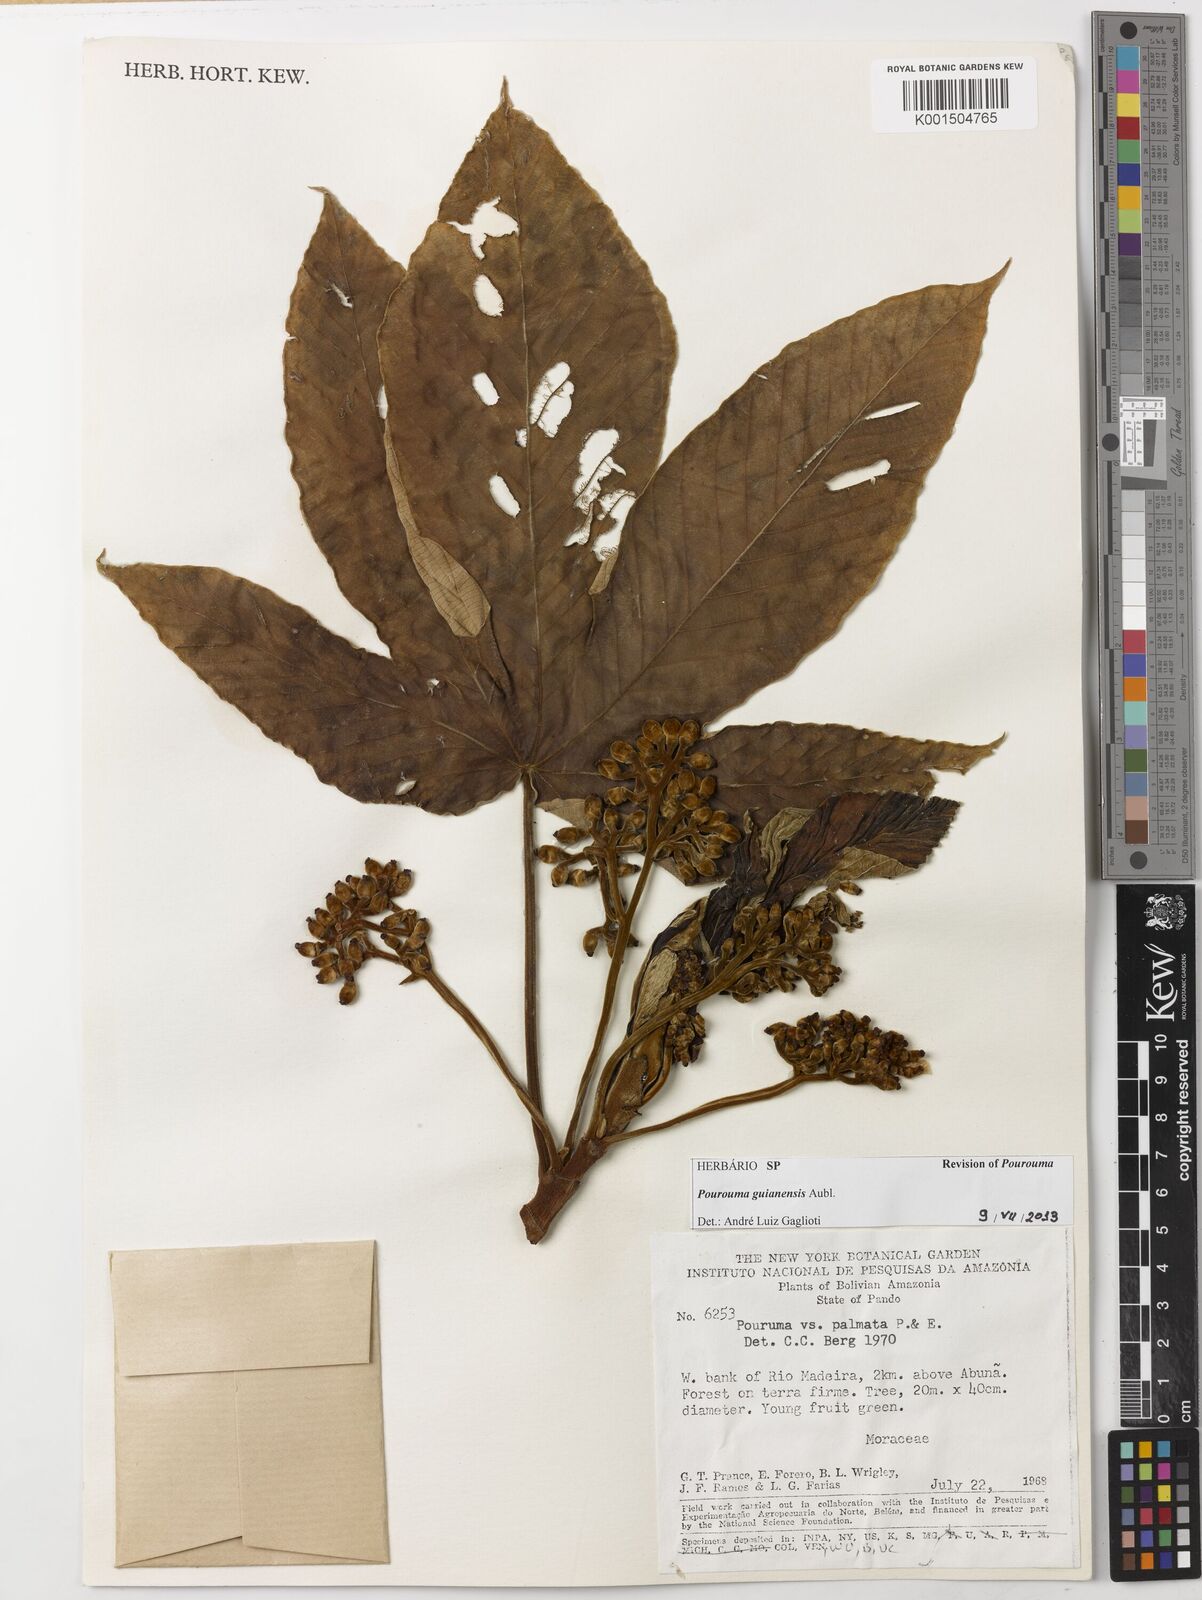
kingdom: Plantae
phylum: Tracheophyta
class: Magnoliopsida
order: Rosales
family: Urticaceae
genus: Pourouma
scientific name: Pourouma guianensis
